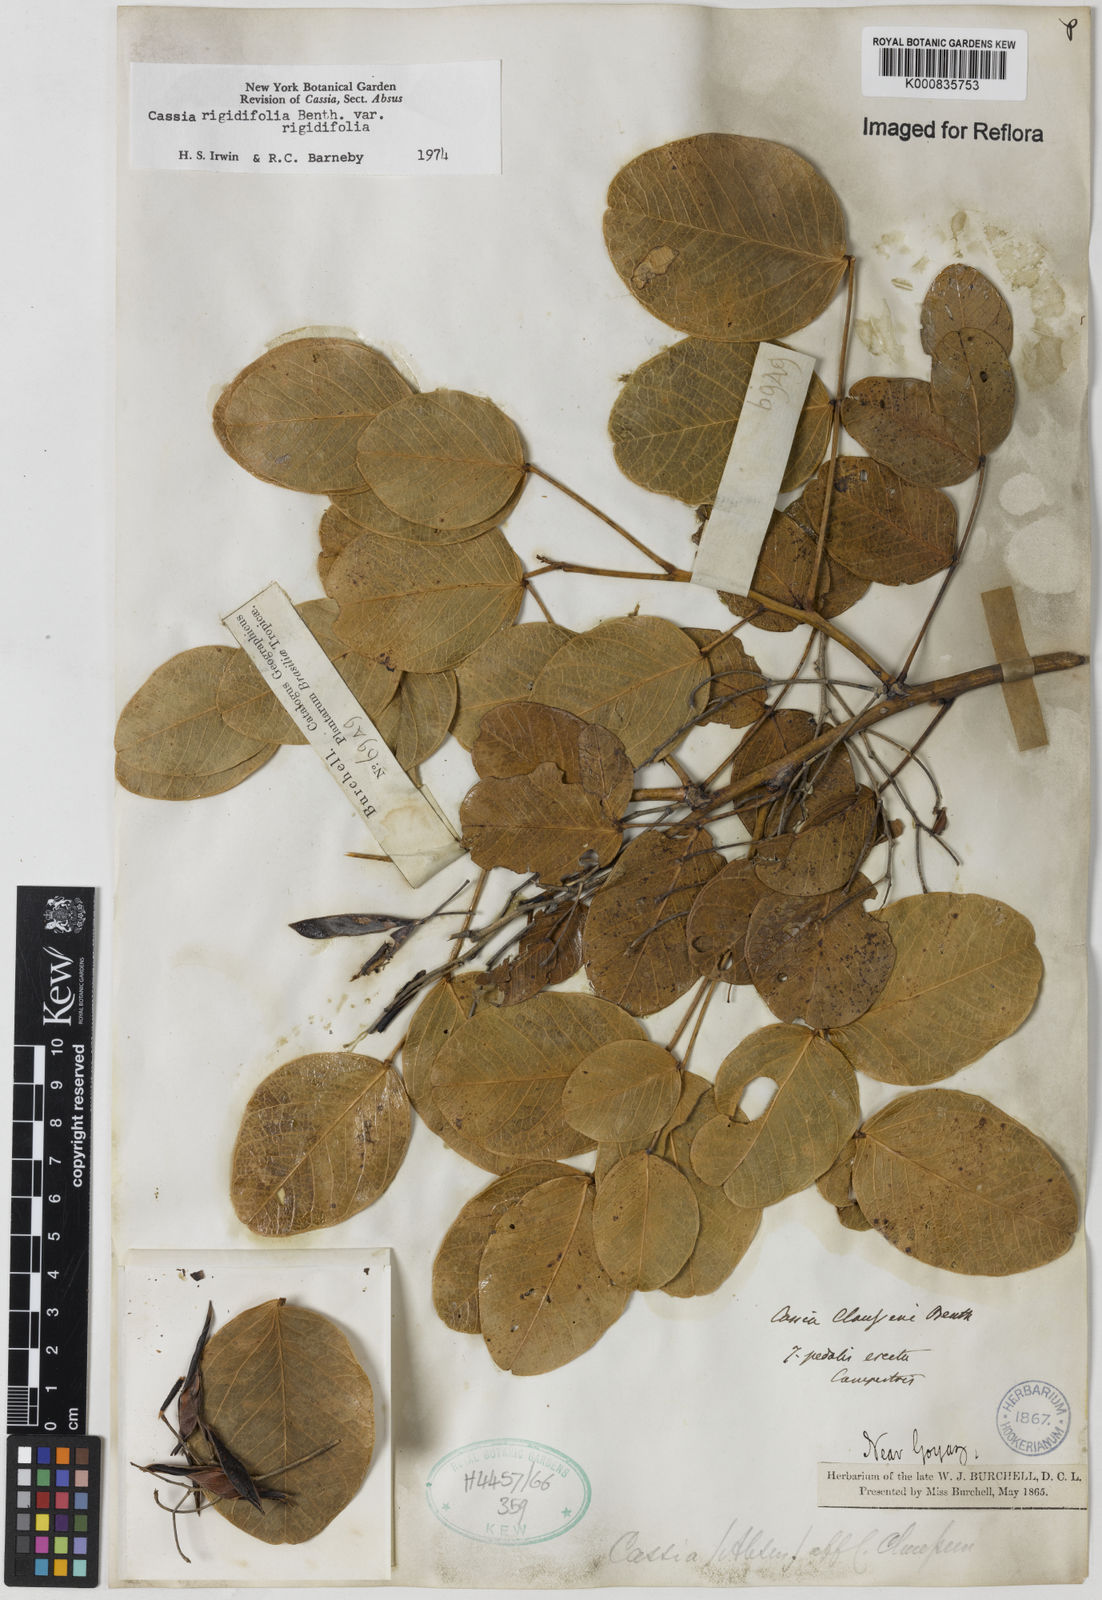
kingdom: Plantae
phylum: Tracheophyta
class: Magnoliopsida
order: Fabales
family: Fabaceae
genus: Chamaecrista
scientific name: Chamaecrista rigidifolia
